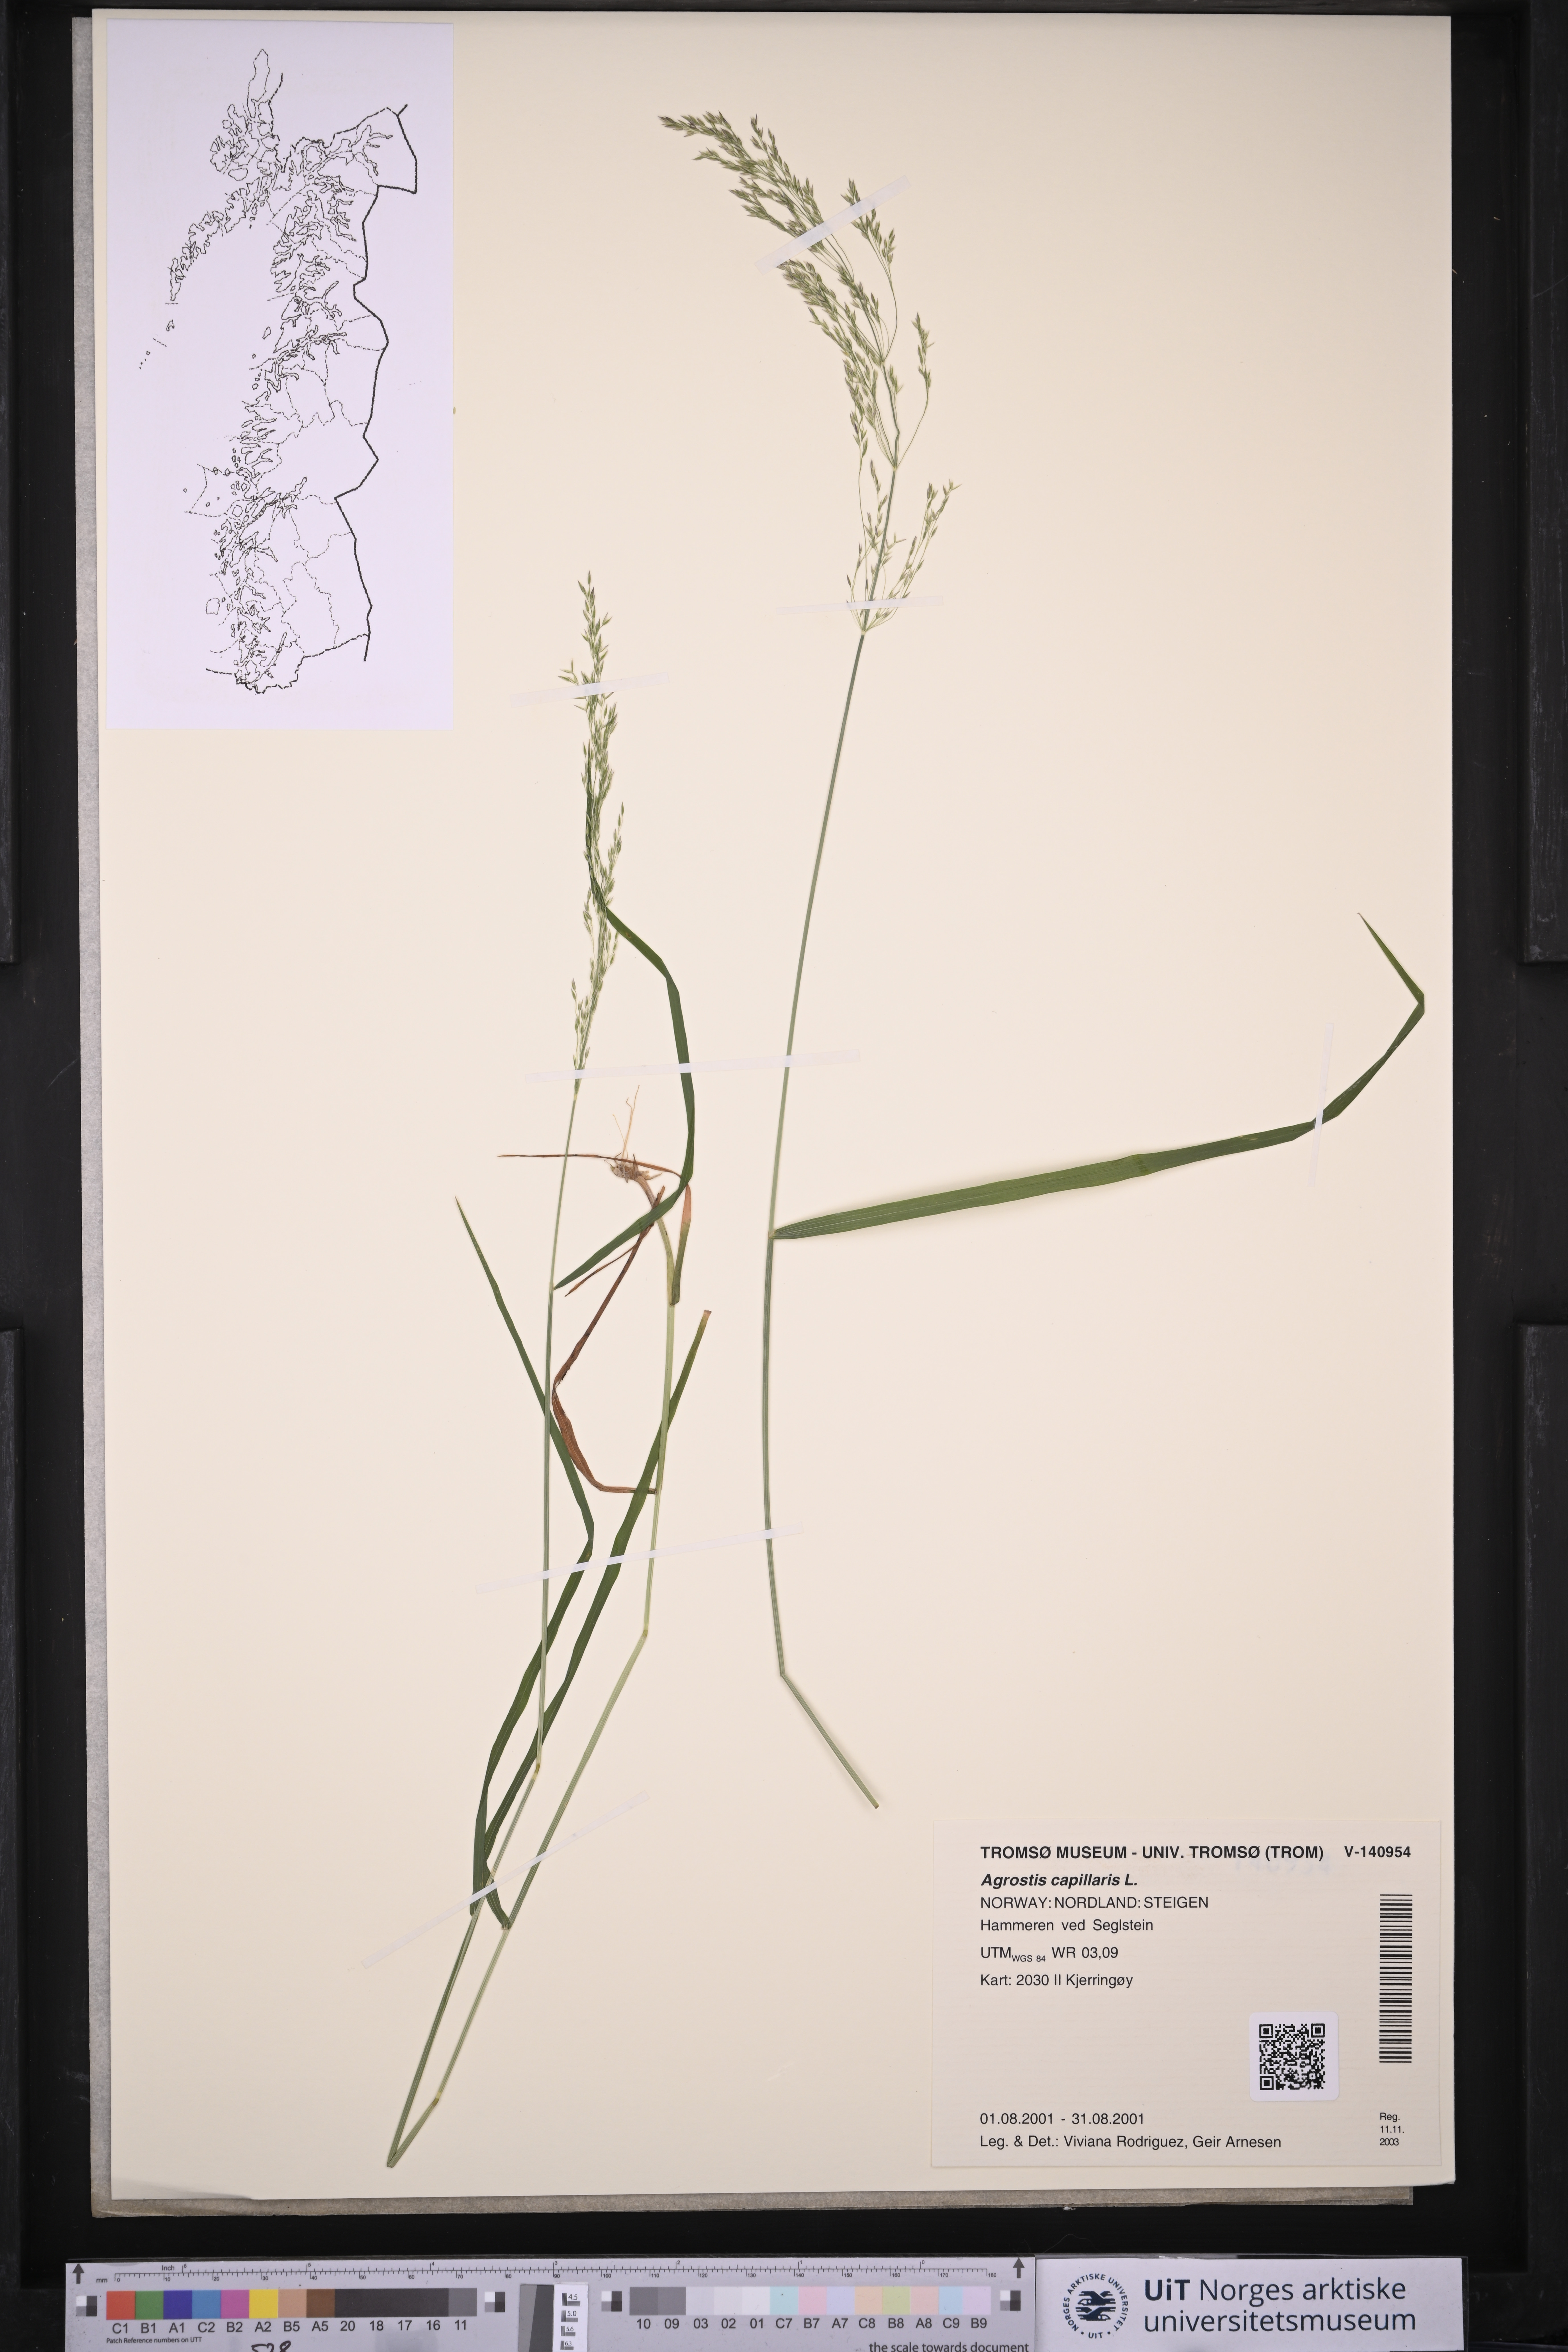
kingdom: Plantae
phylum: Tracheophyta
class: Liliopsida
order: Poales
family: Poaceae
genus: Agrostis
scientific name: Agrostis capillaris
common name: Colonial bentgrass
